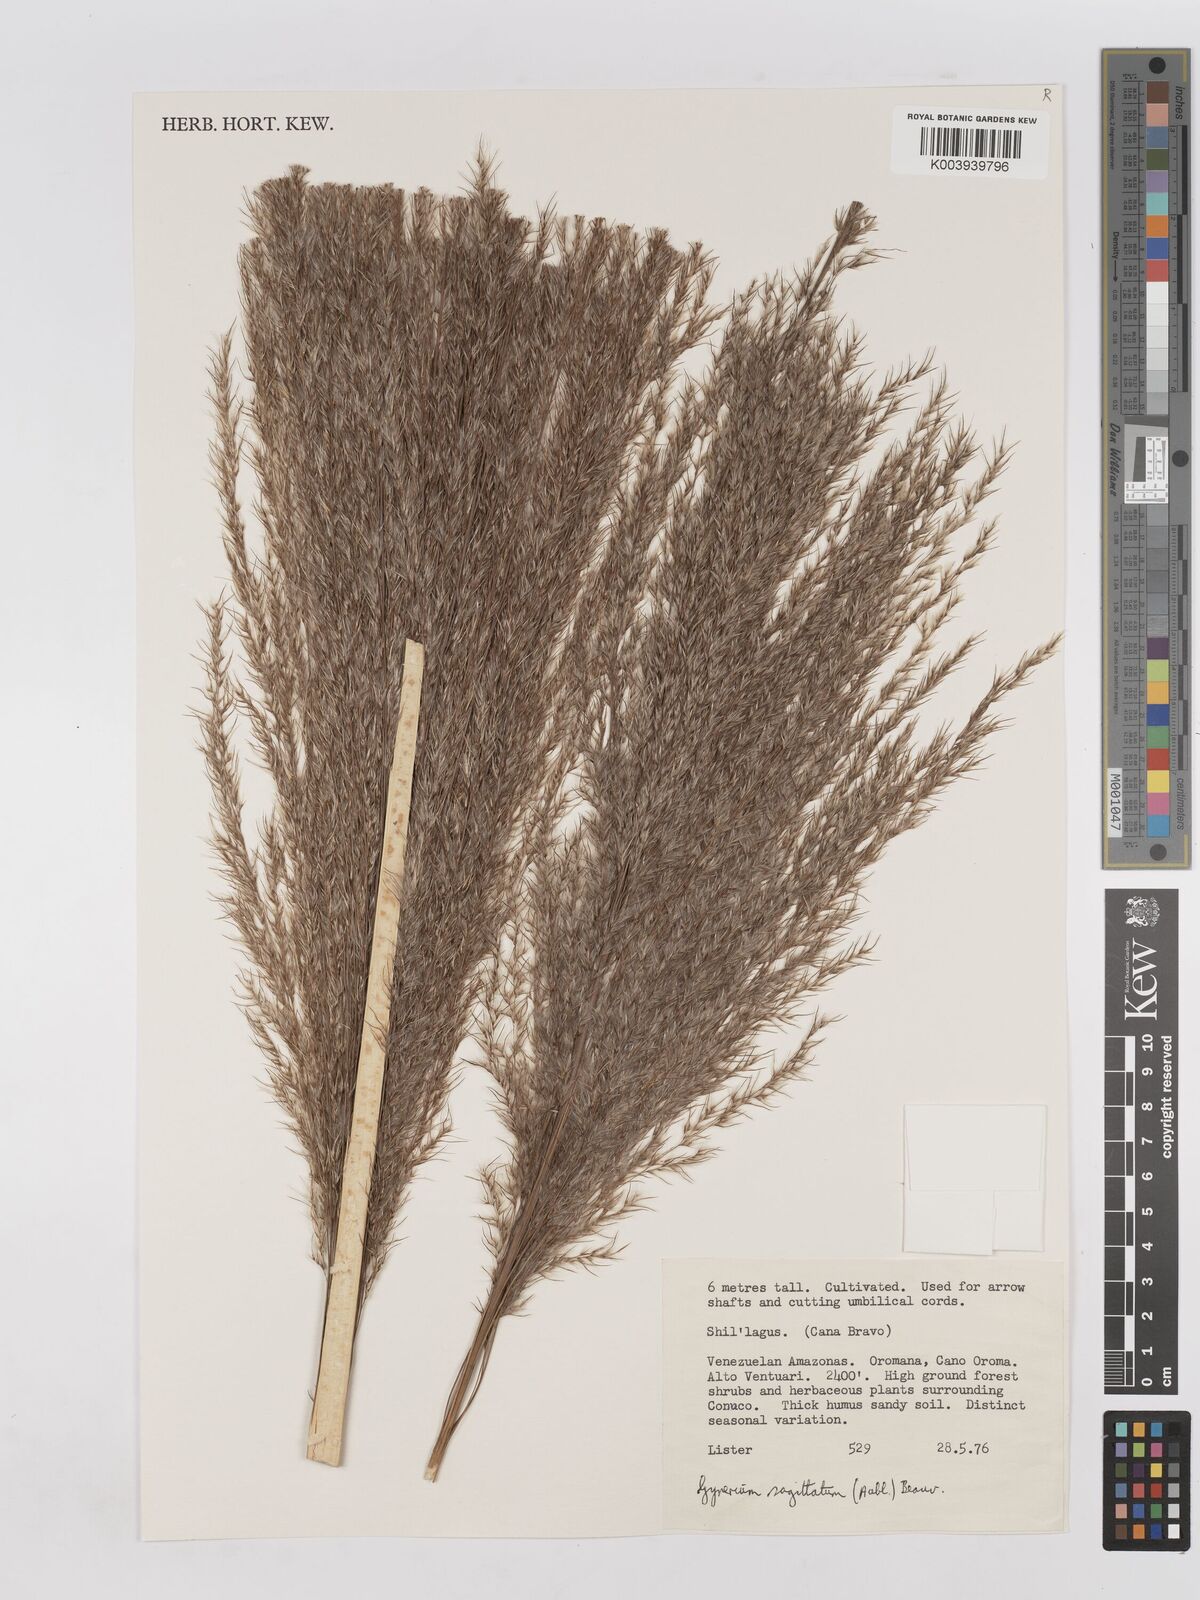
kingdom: Plantae
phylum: Tracheophyta
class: Liliopsida
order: Poales
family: Poaceae
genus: Gynerium
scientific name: Gynerium sagittatum
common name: Wild cane
